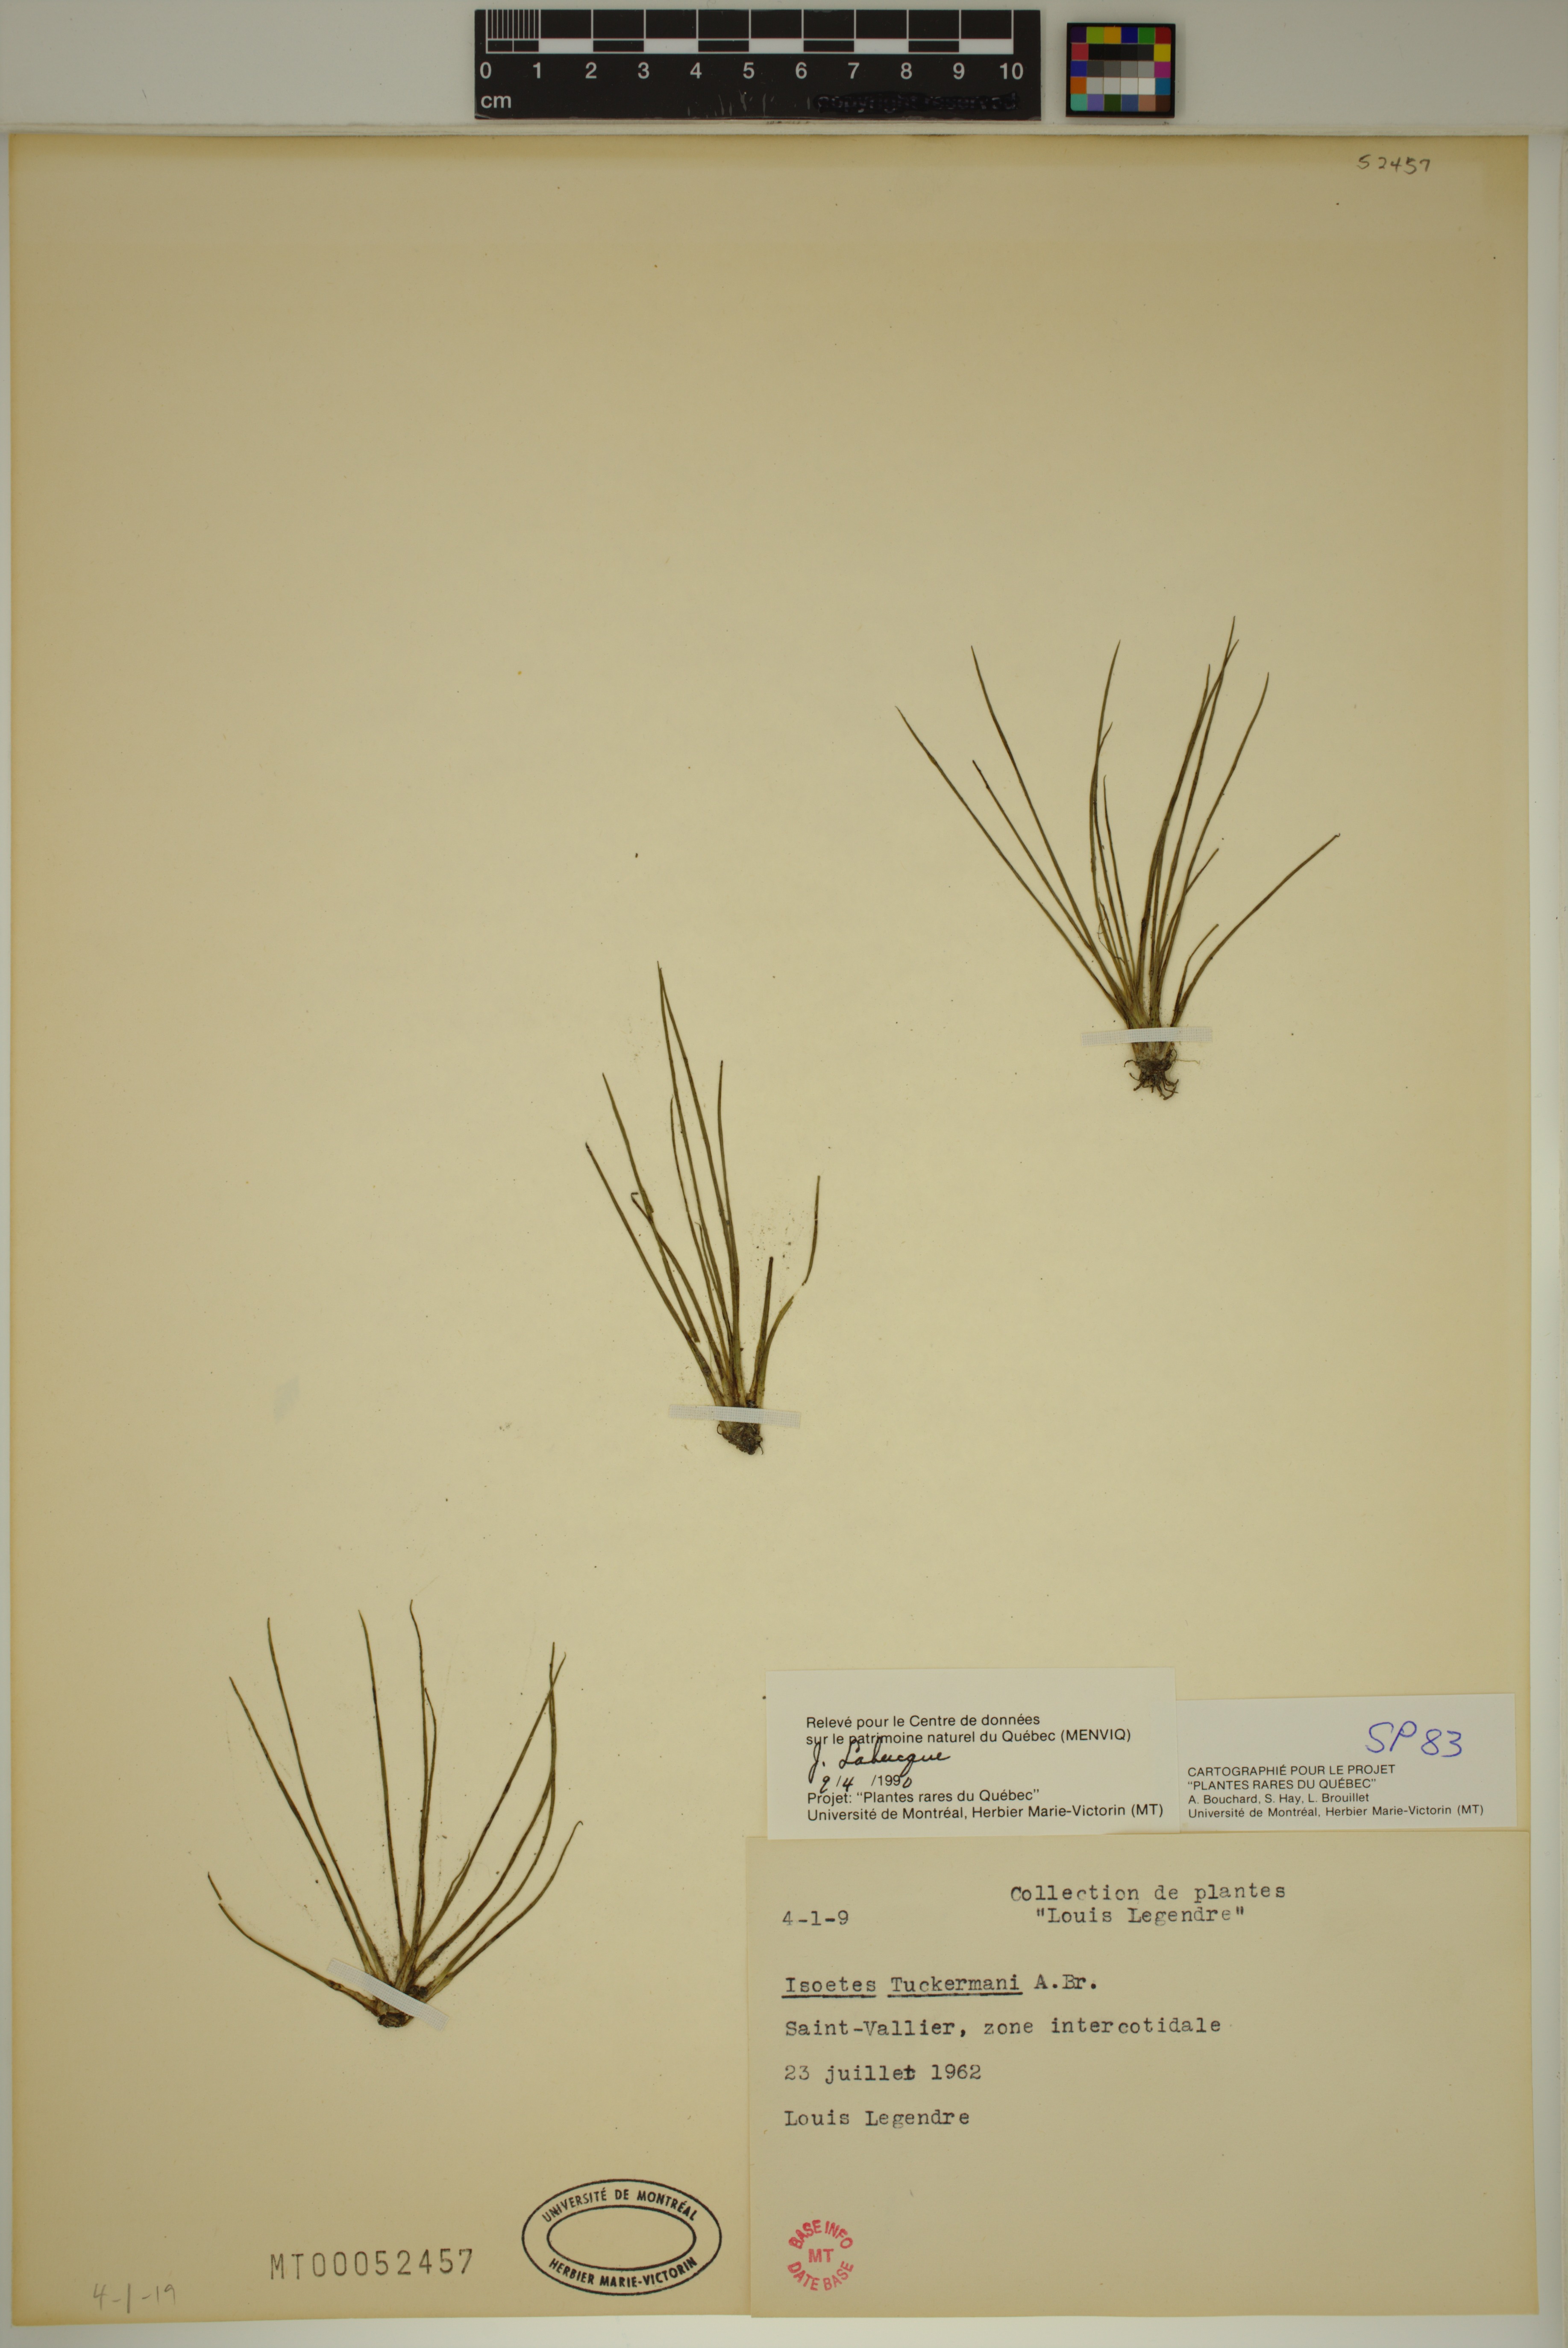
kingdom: Plantae
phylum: Tracheophyta
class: Lycopodiopsida
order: Isoetales
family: Isoetaceae
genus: Isoetes
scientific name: Isoetes laurentiana
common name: St. lawrence quillwort
